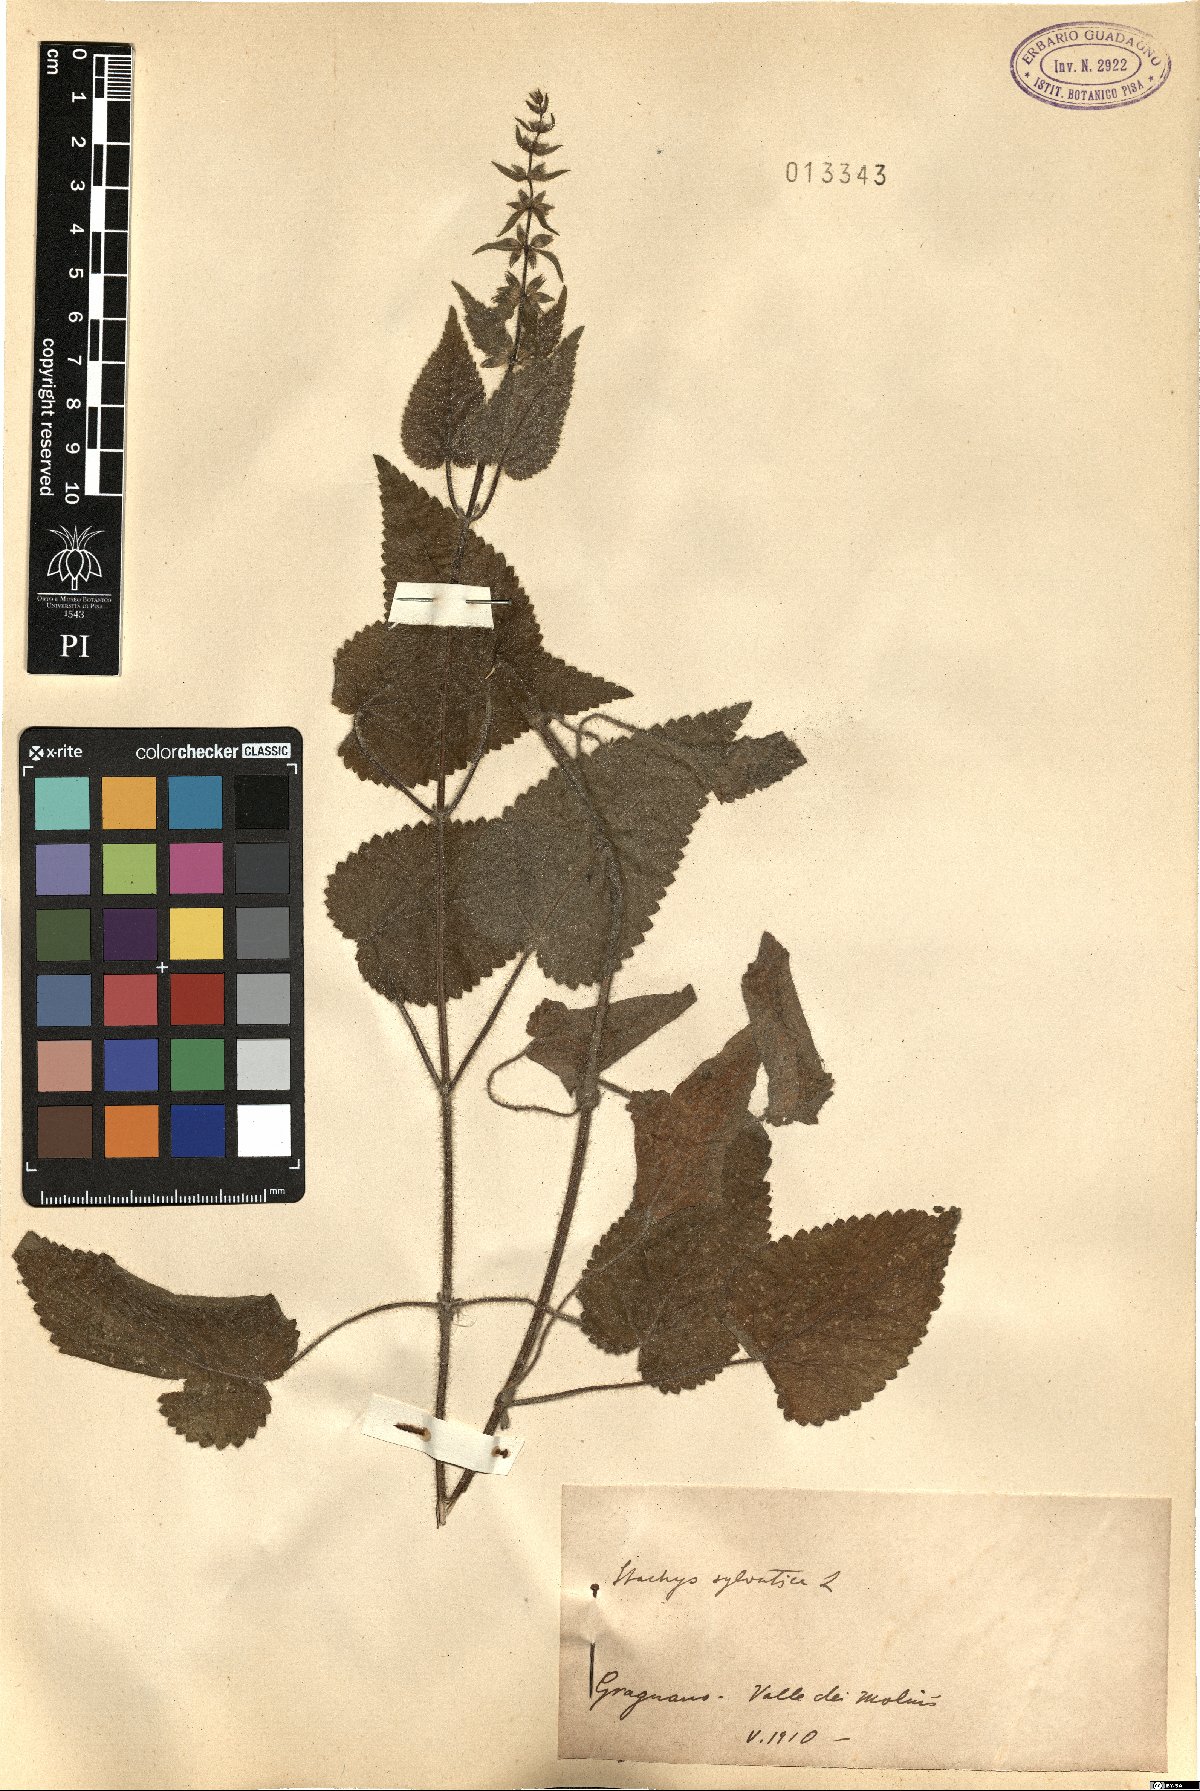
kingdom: Plantae
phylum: Tracheophyta
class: Magnoliopsida
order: Lamiales
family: Lamiaceae
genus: Stachys
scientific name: Stachys sylvatica
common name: Hedge woundwort
